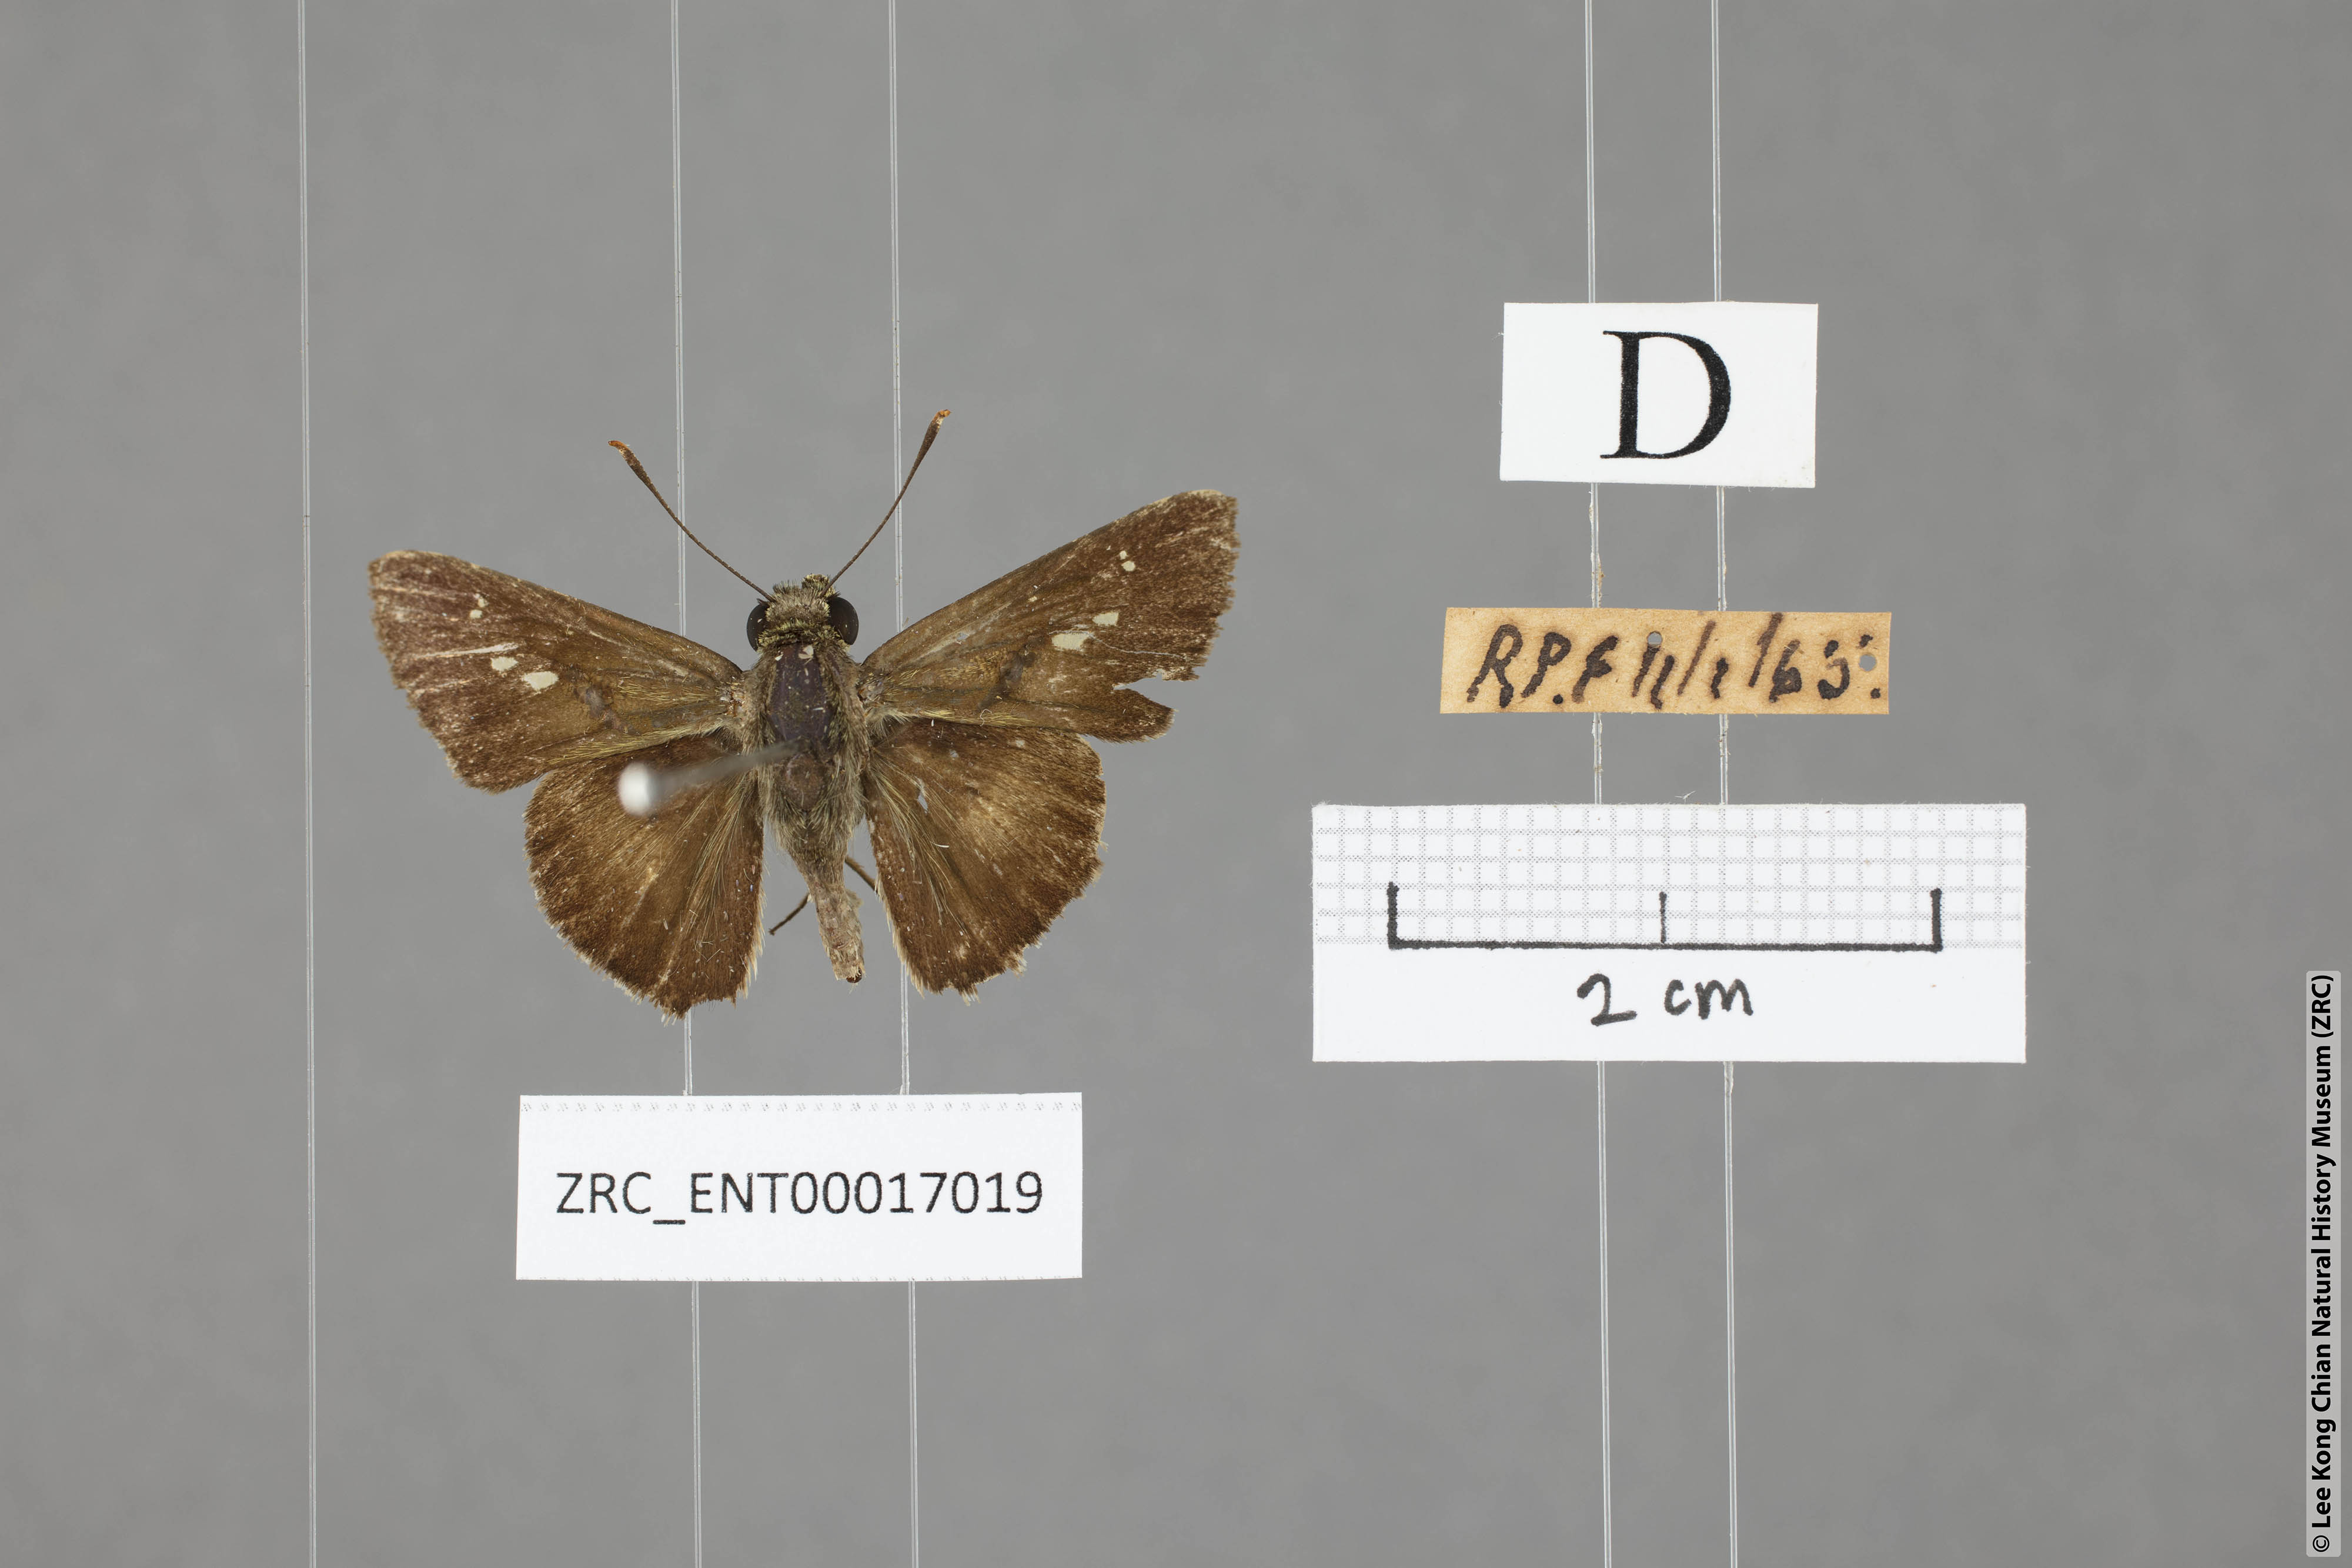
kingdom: Animalia
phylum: Arthropoda
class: Insecta
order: Lepidoptera
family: Hesperiidae
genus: Halpe
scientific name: Halpe
